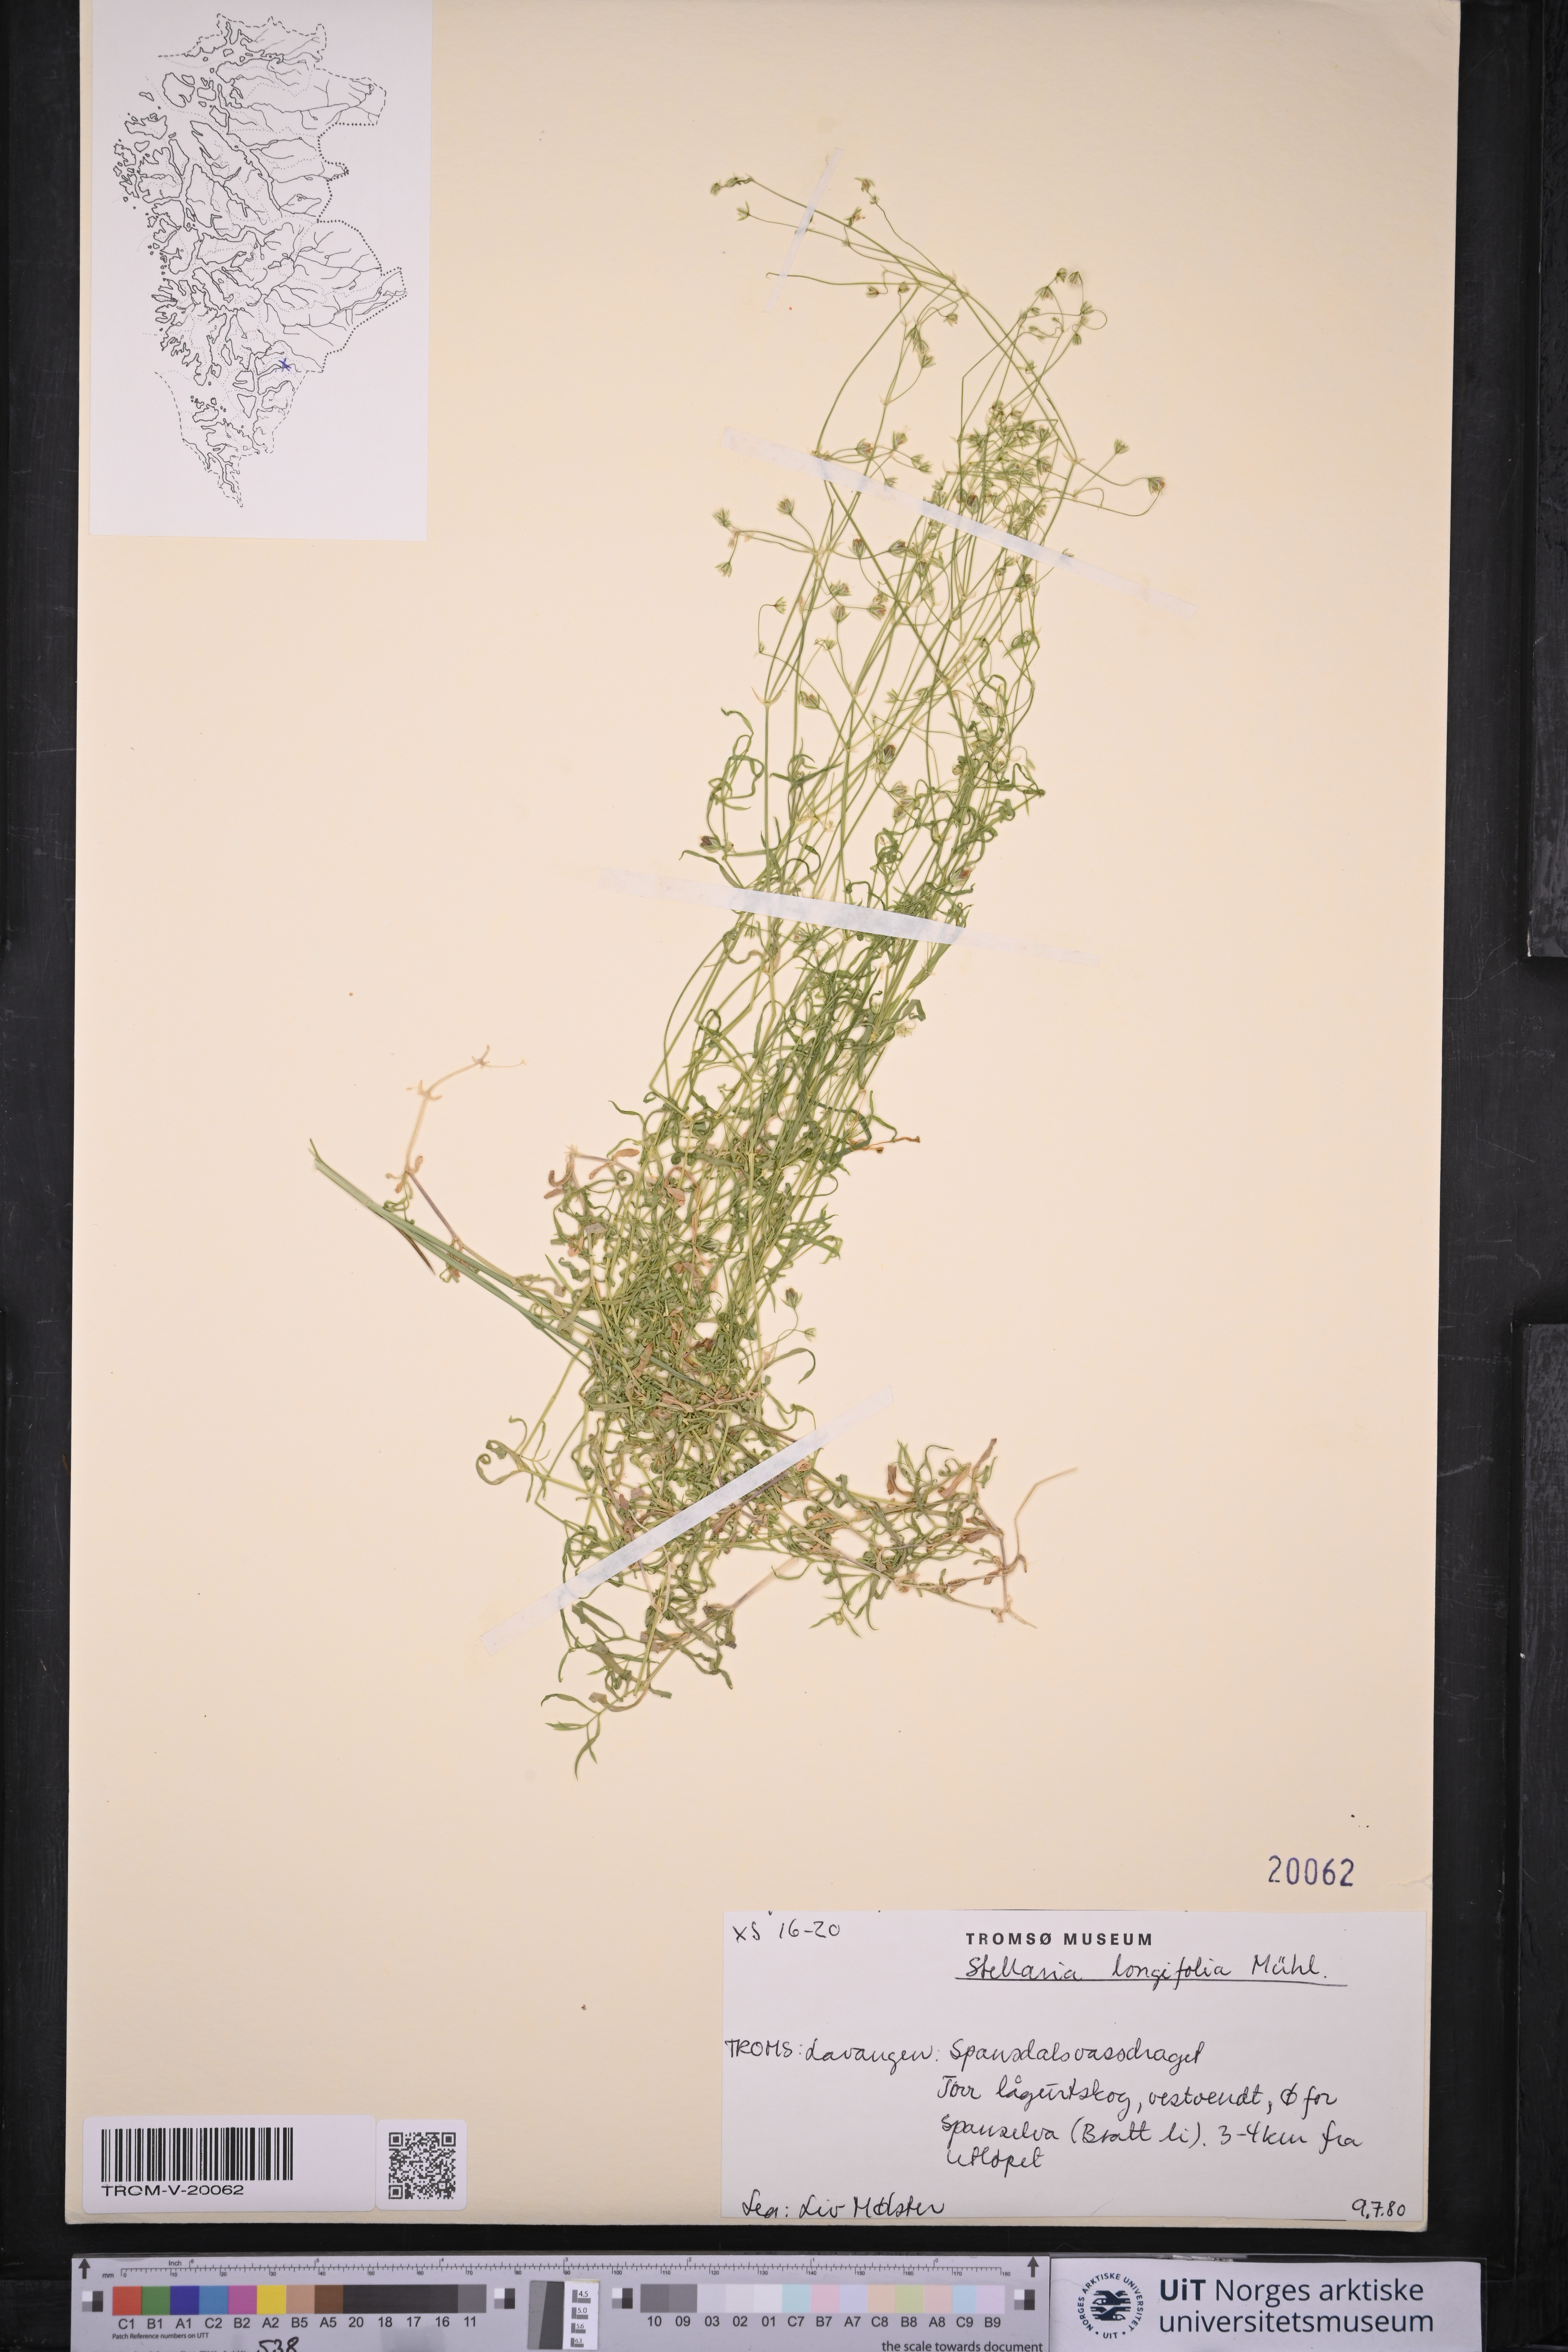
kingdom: Plantae
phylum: Tracheophyta
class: Magnoliopsida
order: Caryophyllales
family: Caryophyllaceae
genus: Stellaria
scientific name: Stellaria longifolia
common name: Long-leaved chickweed
